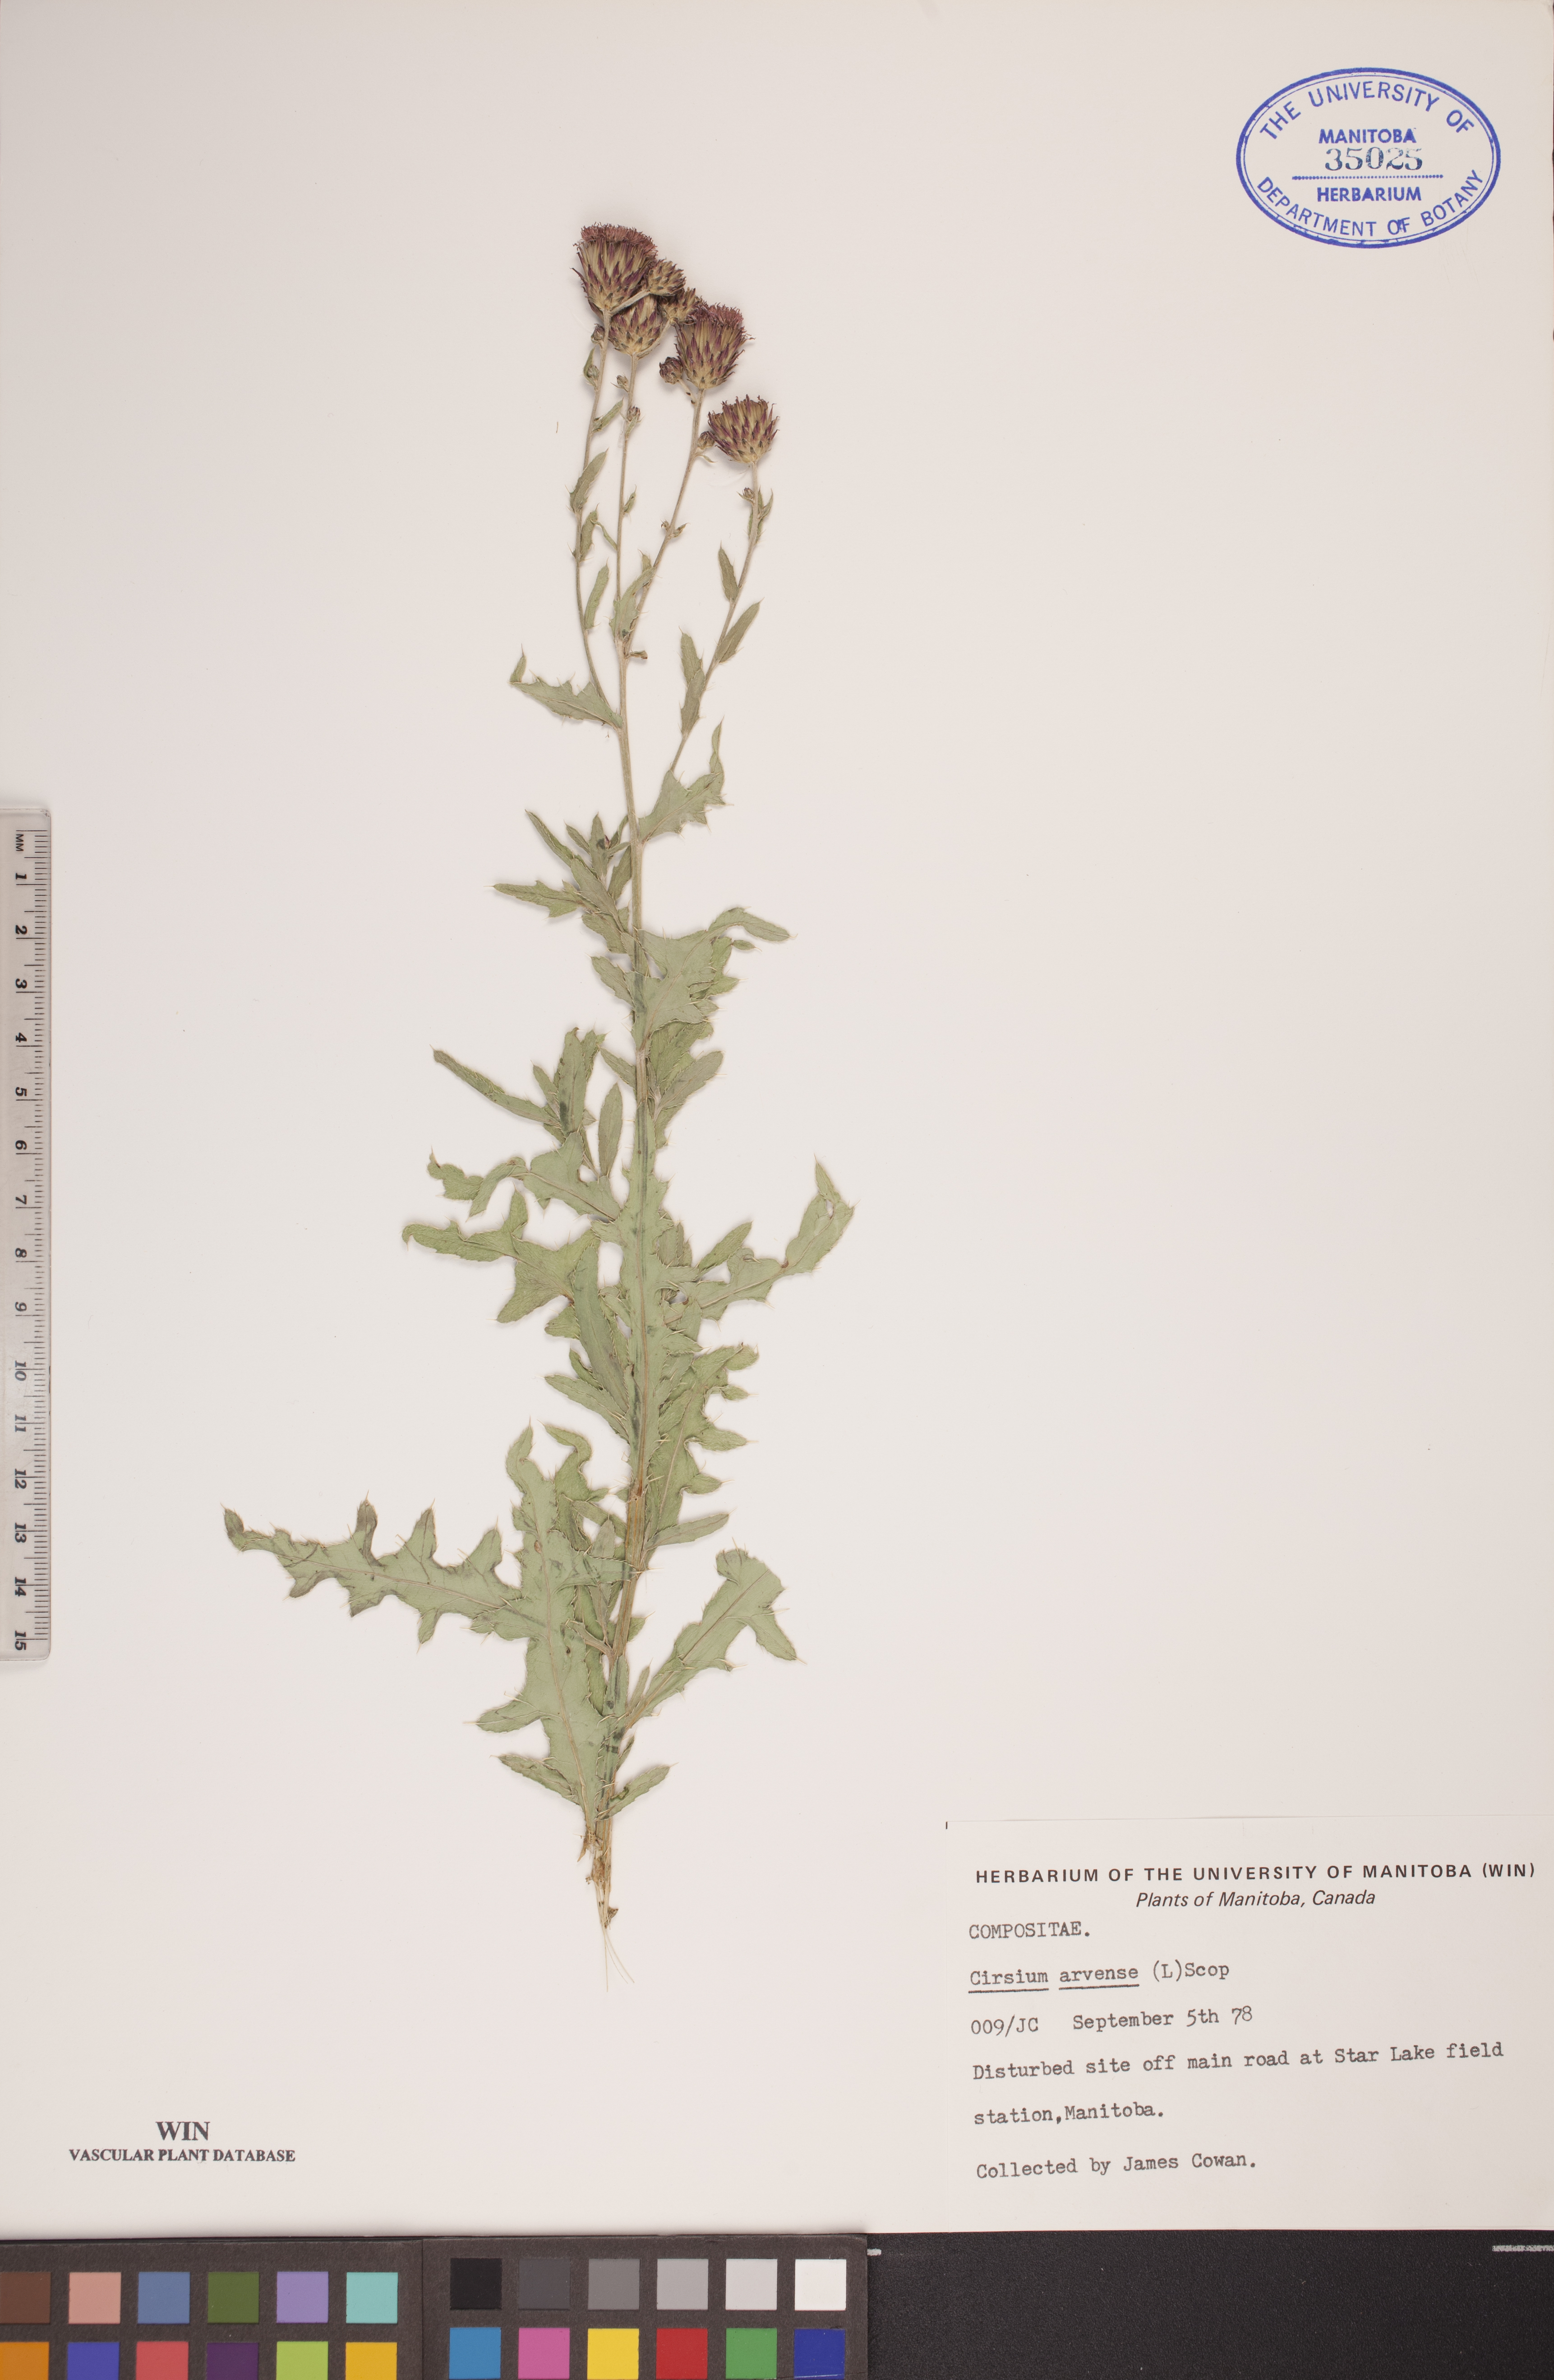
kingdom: Plantae
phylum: Tracheophyta
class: Magnoliopsida
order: Asterales
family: Asteraceae
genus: Cirsium
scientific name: Cirsium arvense
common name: Creeping thistle
